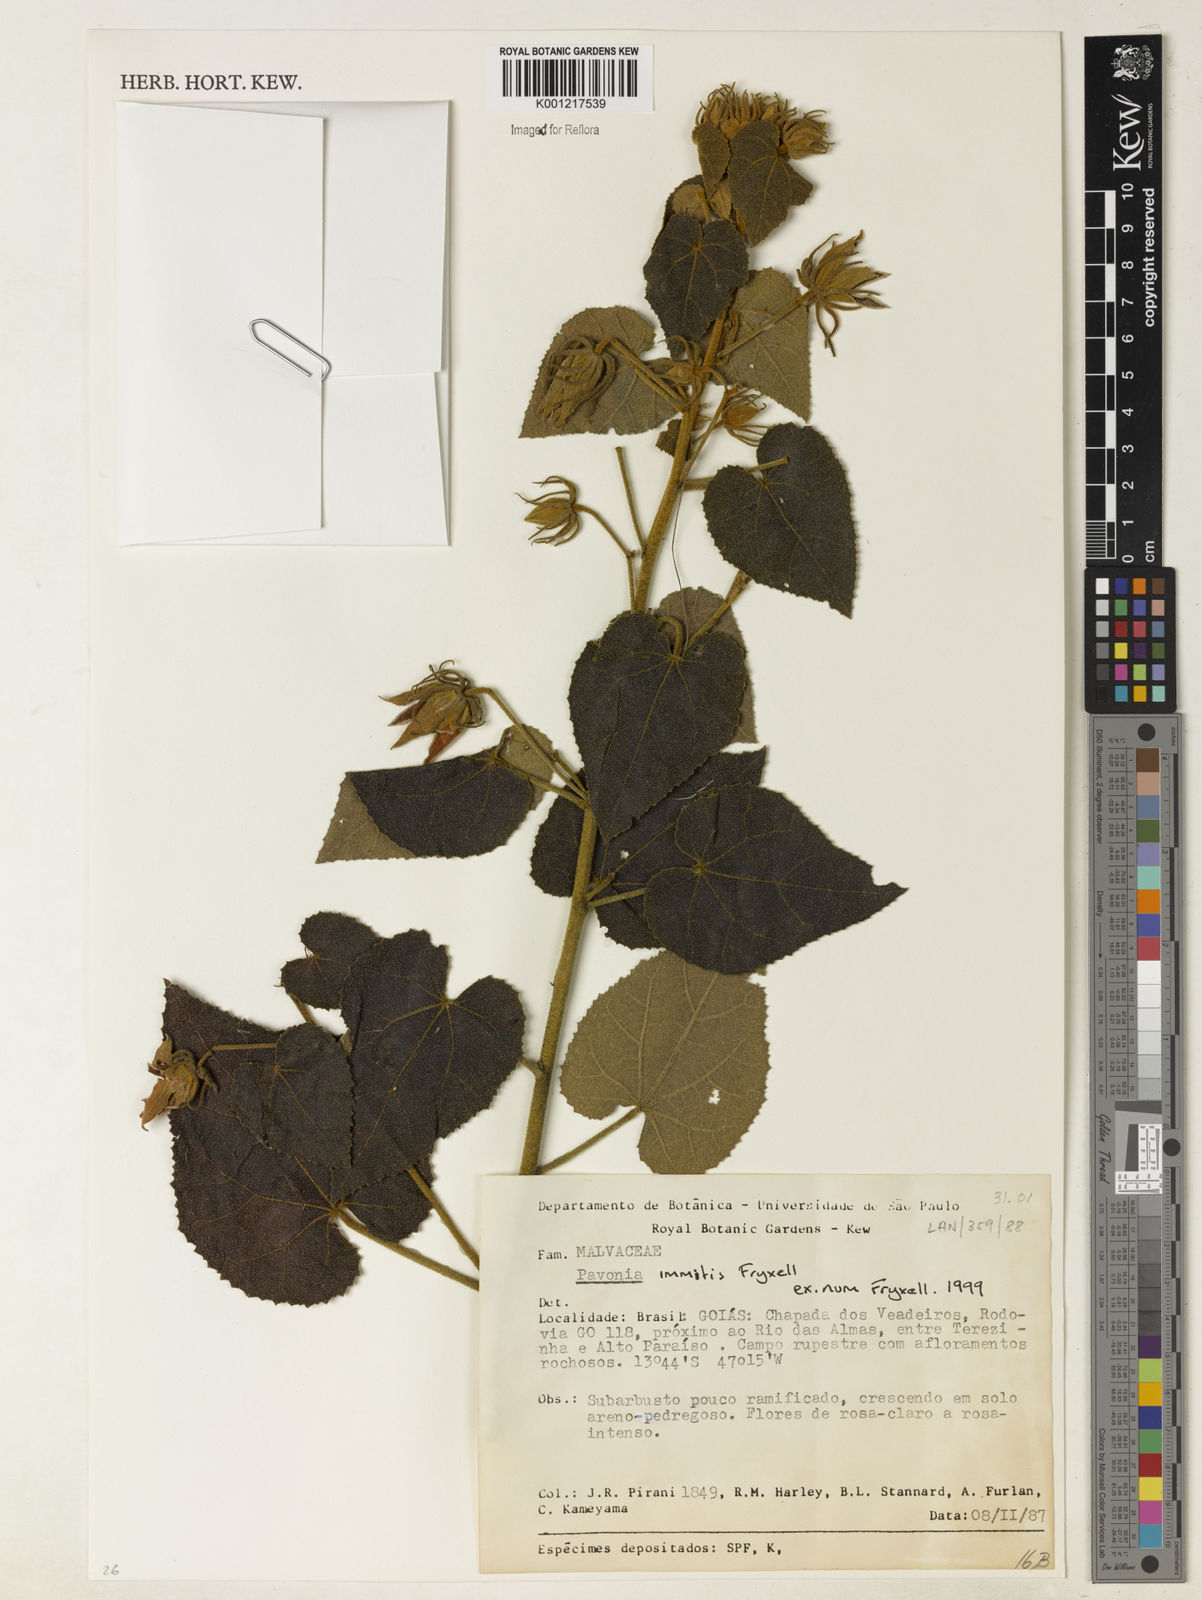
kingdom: Plantae
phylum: Tracheophyta
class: Magnoliopsida
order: Malvales
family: Malvaceae
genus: Pavonia
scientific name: Pavonia immitis
